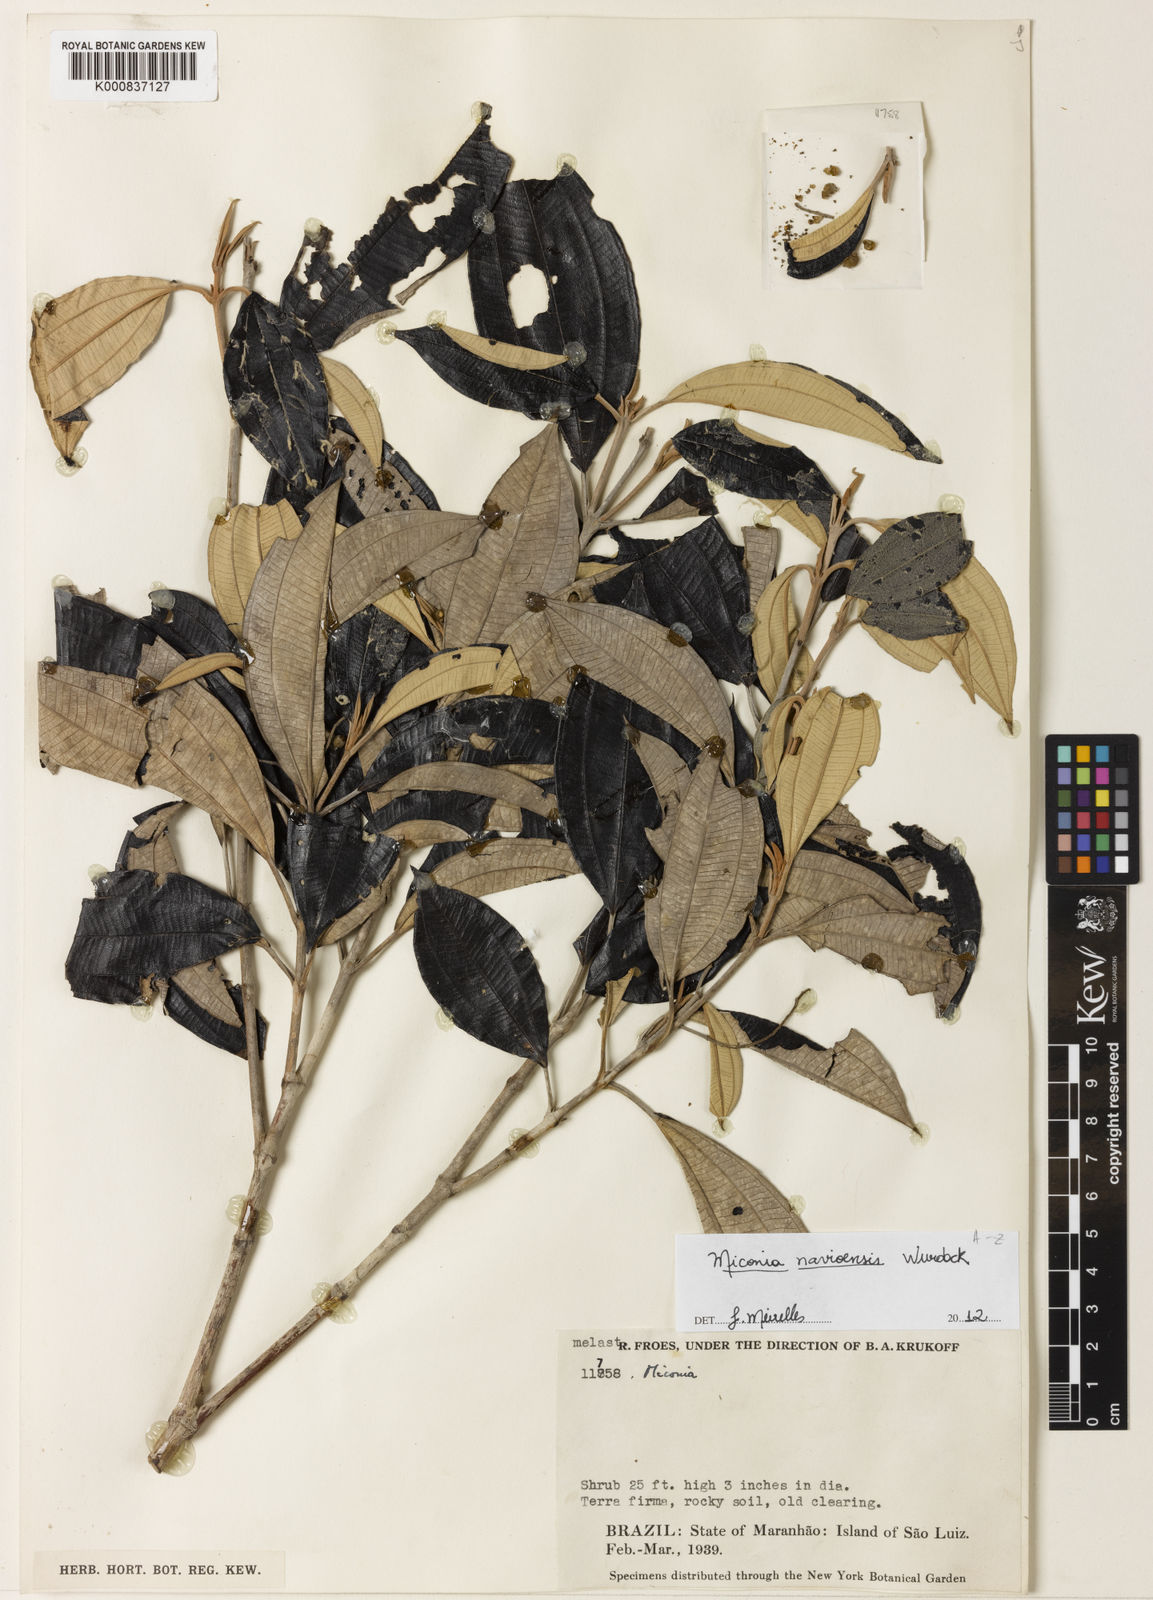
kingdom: Plantae
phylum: Tracheophyta
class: Magnoliopsida
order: Myrtales
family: Melastomataceae
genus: Miconia
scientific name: Miconia navioensis
